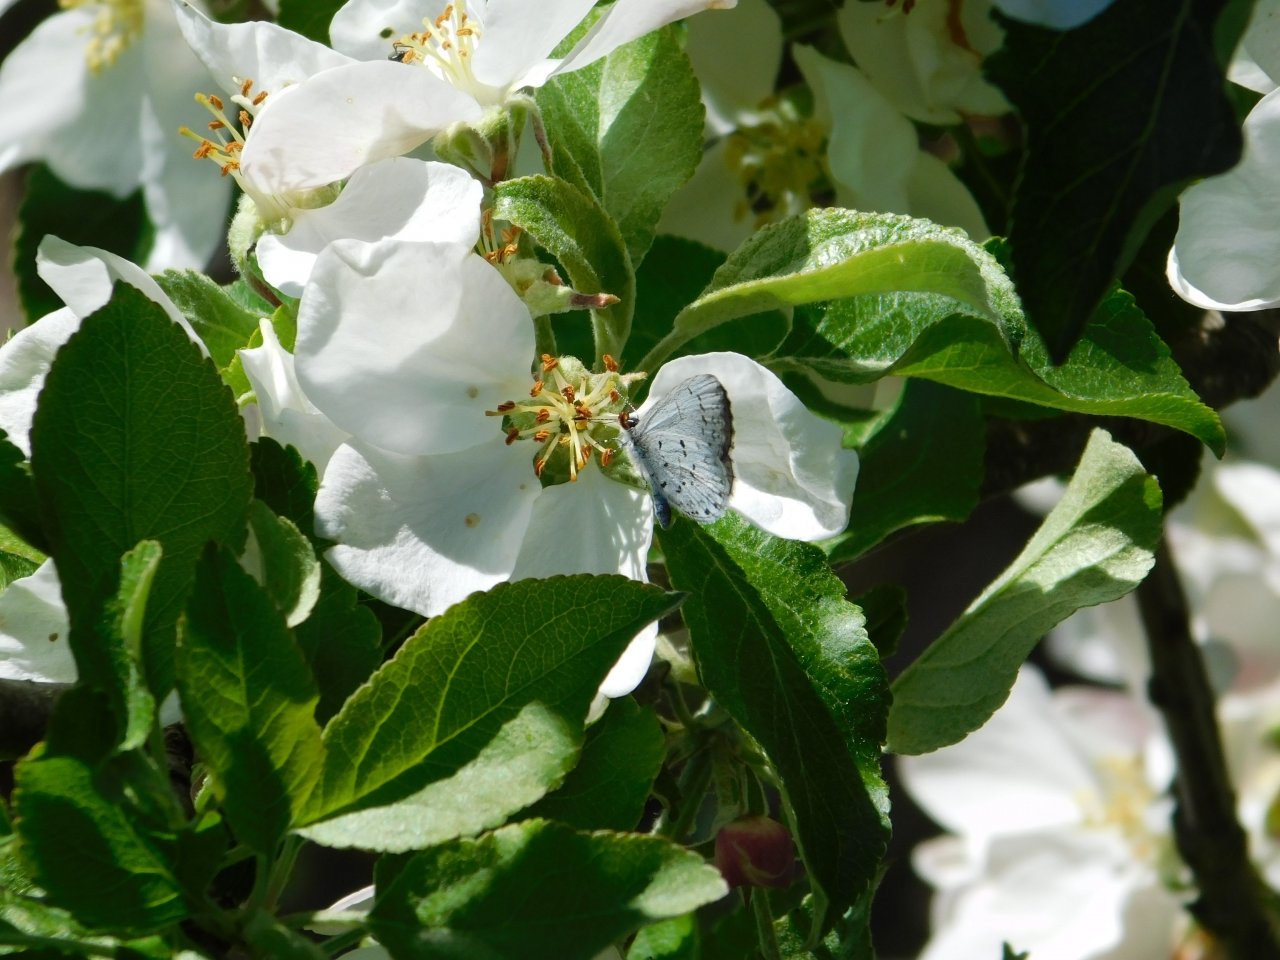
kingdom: Animalia
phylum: Arthropoda
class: Insecta
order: Lepidoptera
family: Lycaenidae
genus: Celastrina
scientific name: Celastrina lucia
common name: Northern Spring Azure
